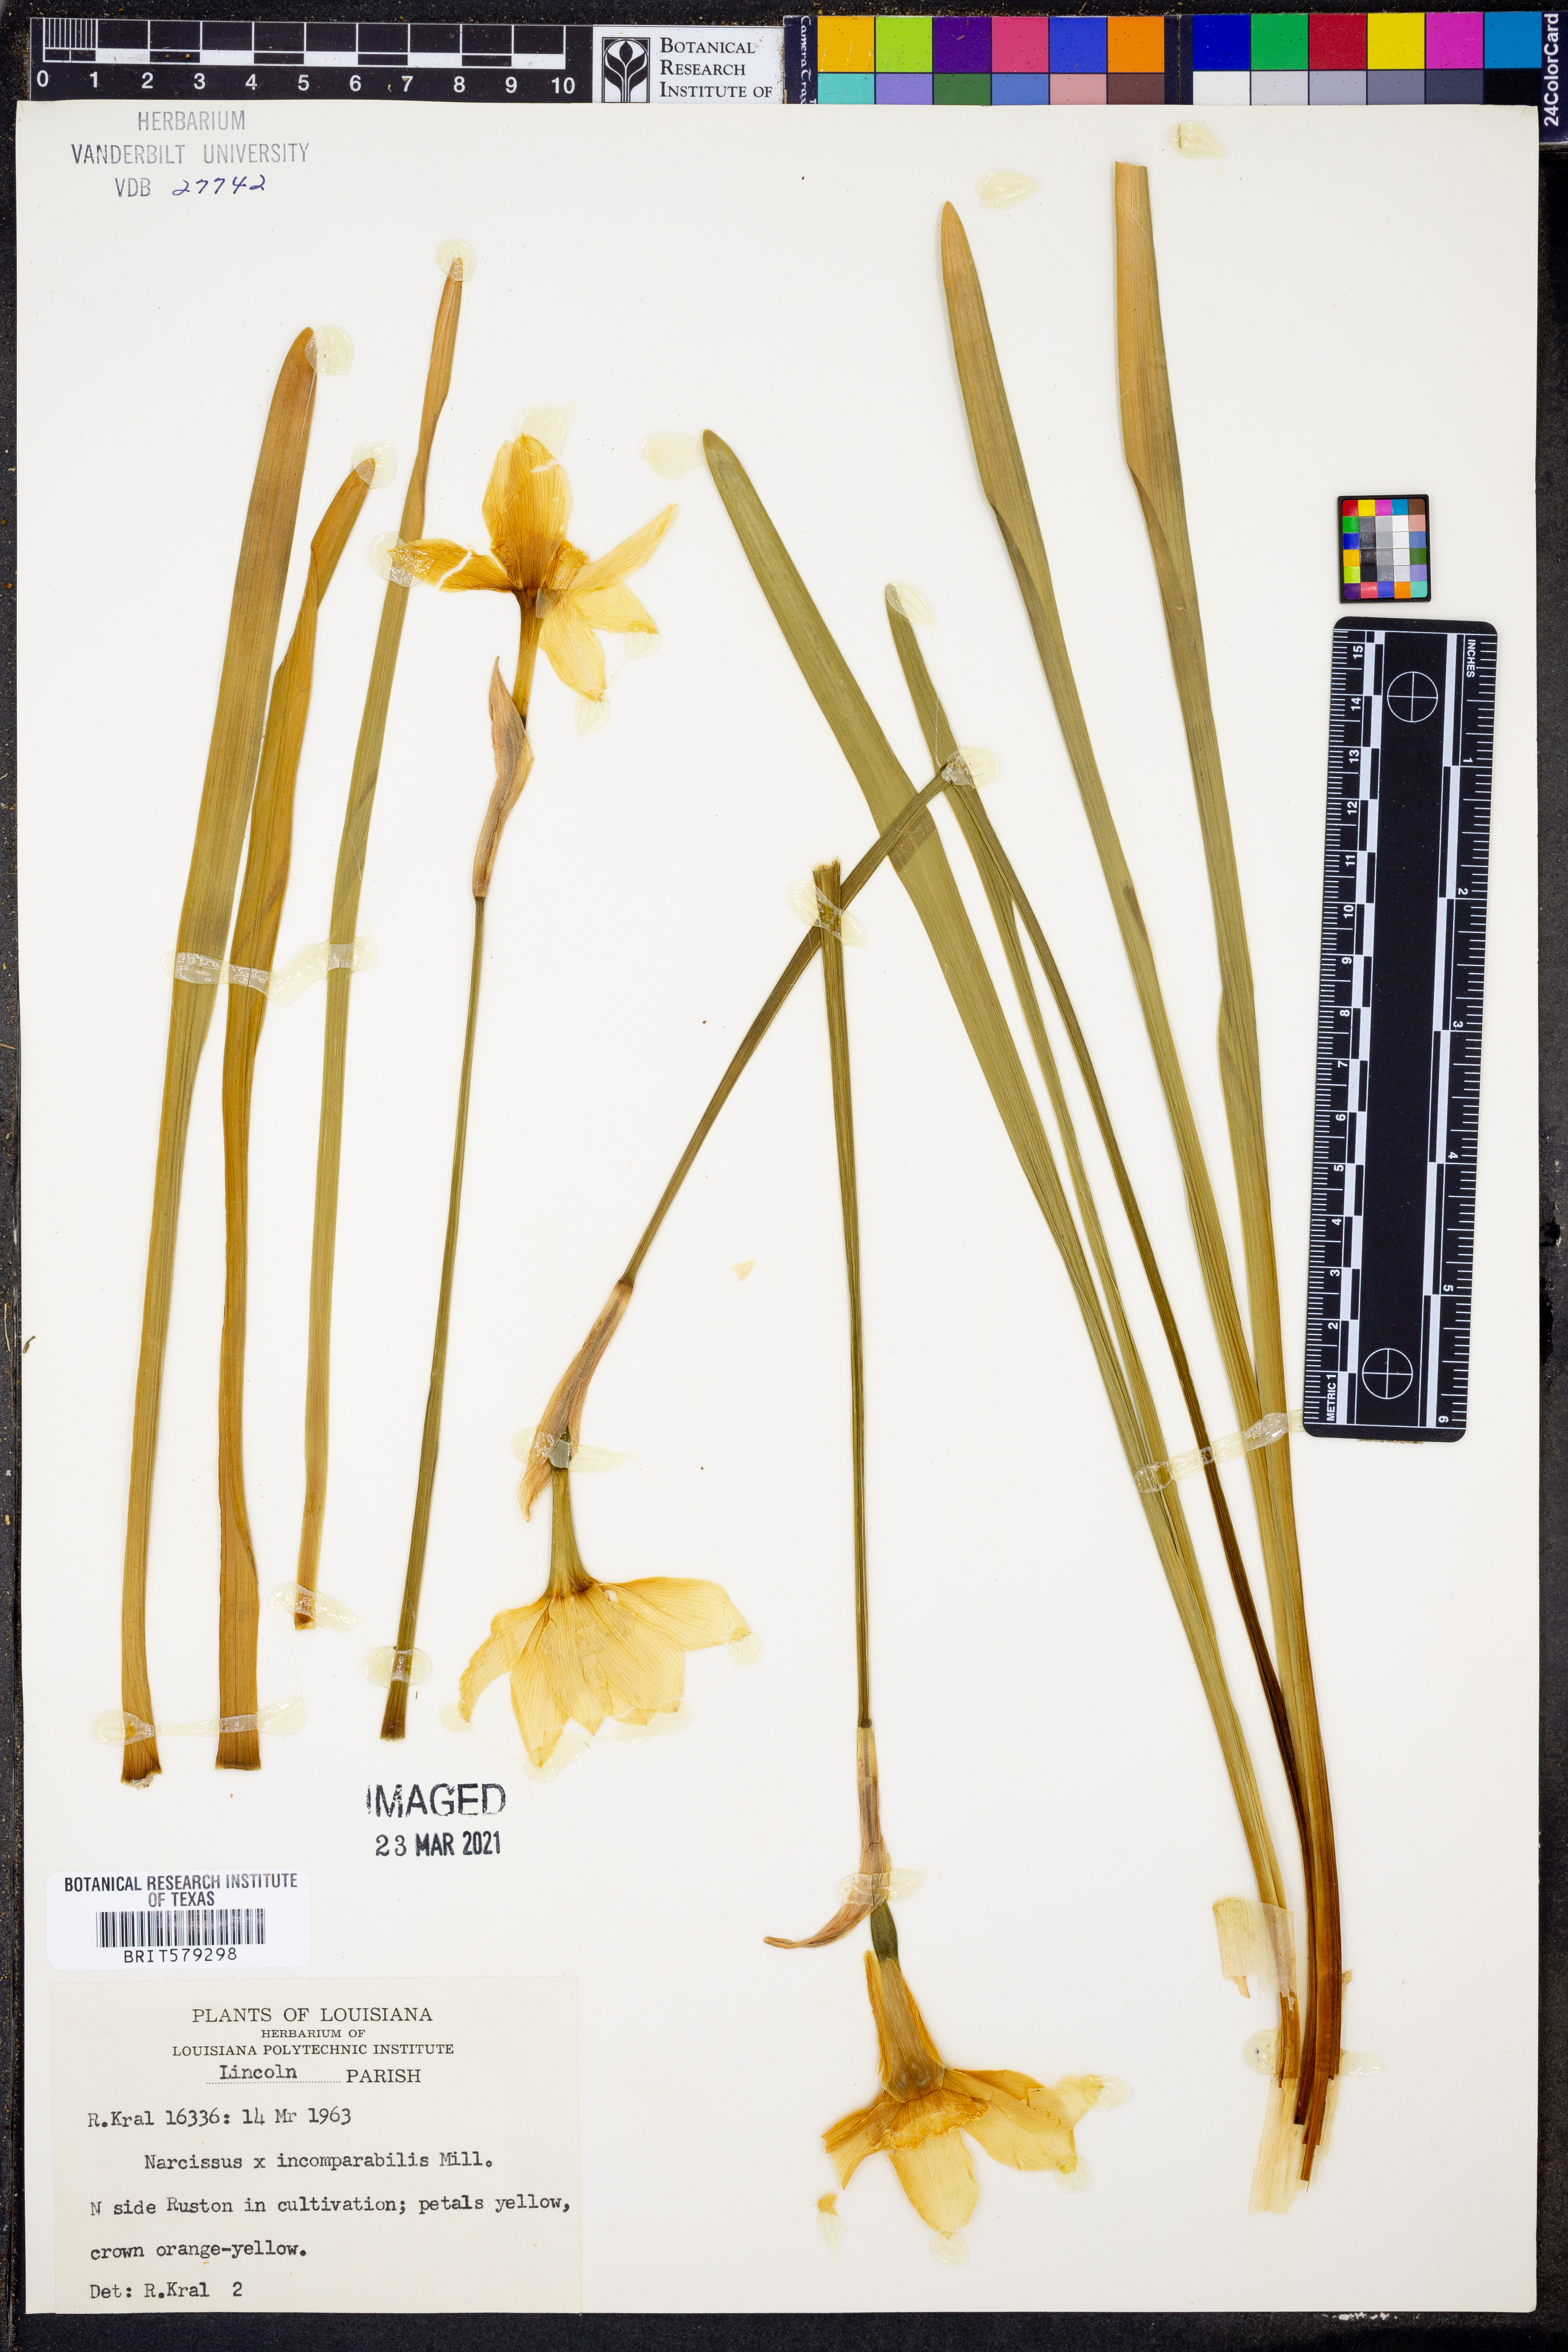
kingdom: Plantae
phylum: Tracheophyta
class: Liliopsida
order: Asparagales
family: Amaryllidaceae
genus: Narcissus
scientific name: Narcissus
